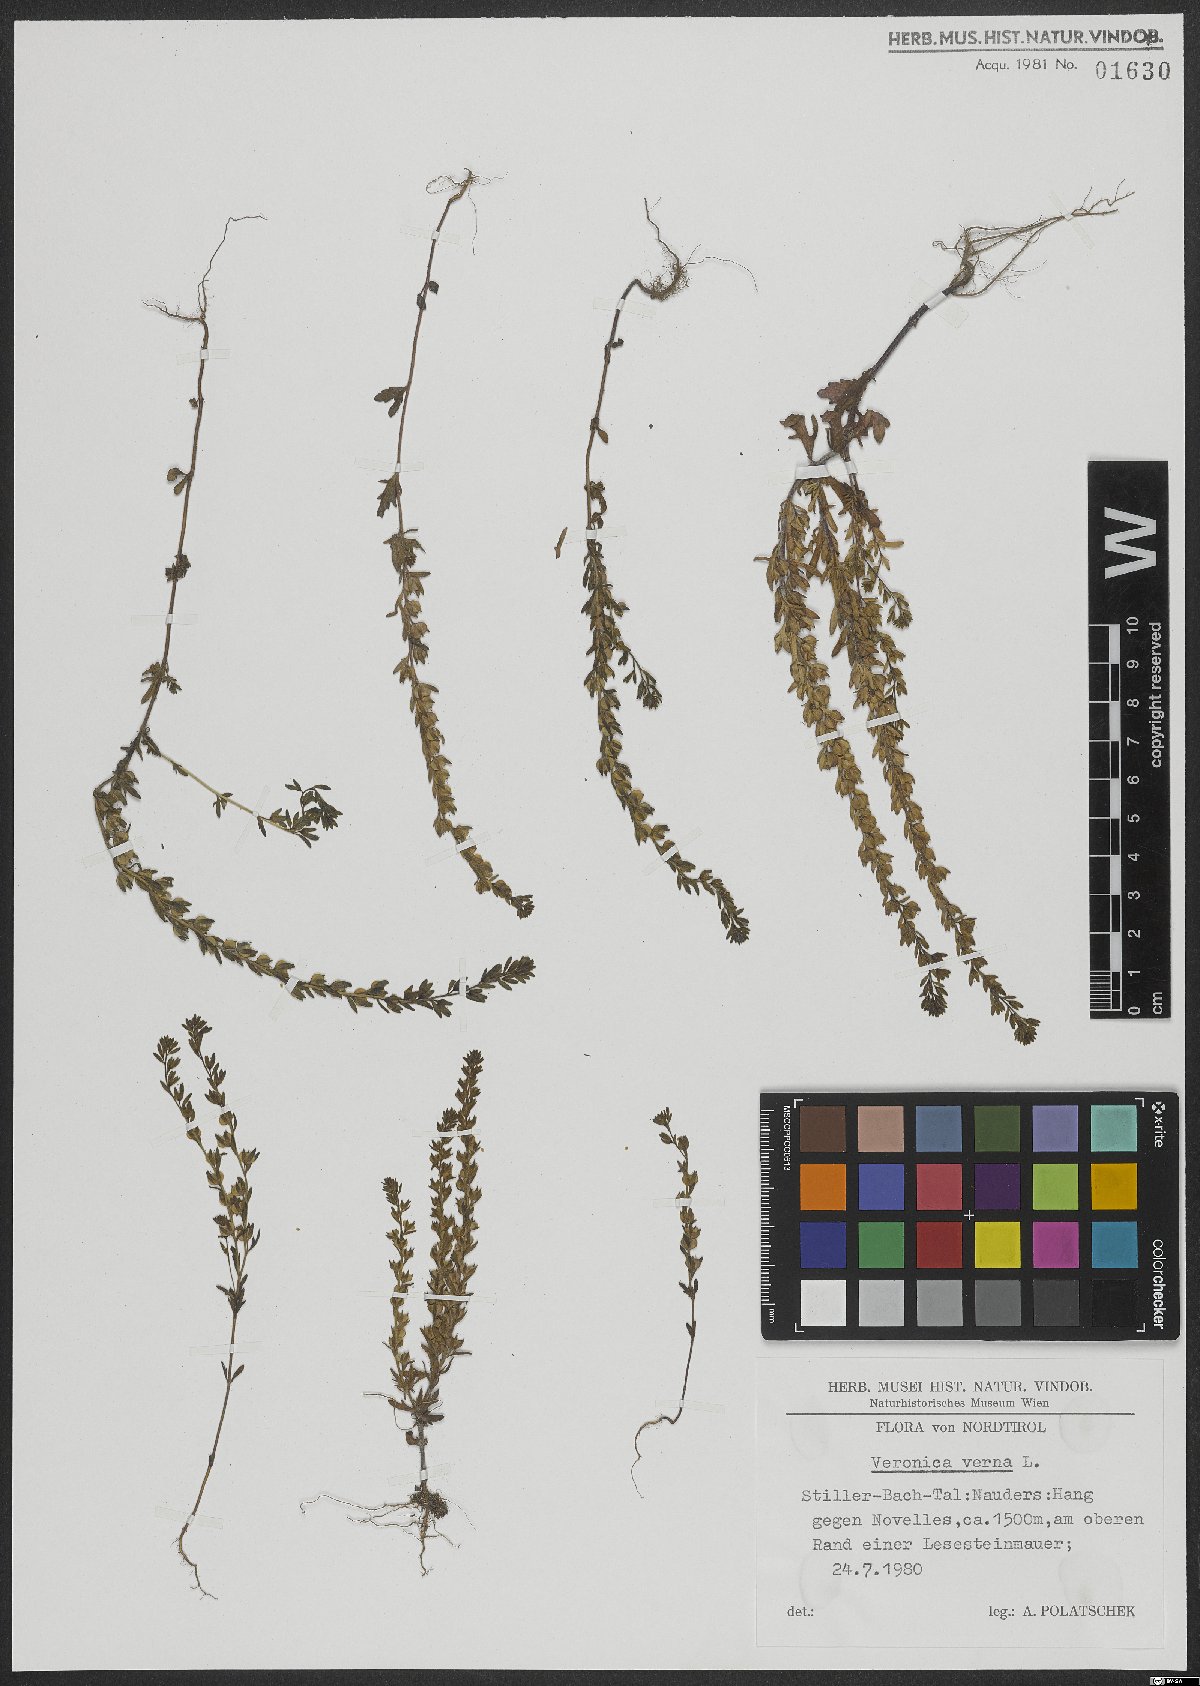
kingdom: Plantae
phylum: Tracheophyta
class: Magnoliopsida
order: Lamiales
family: Plantaginaceae
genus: Veronica
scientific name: Veronica verna
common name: Spring speedwell
